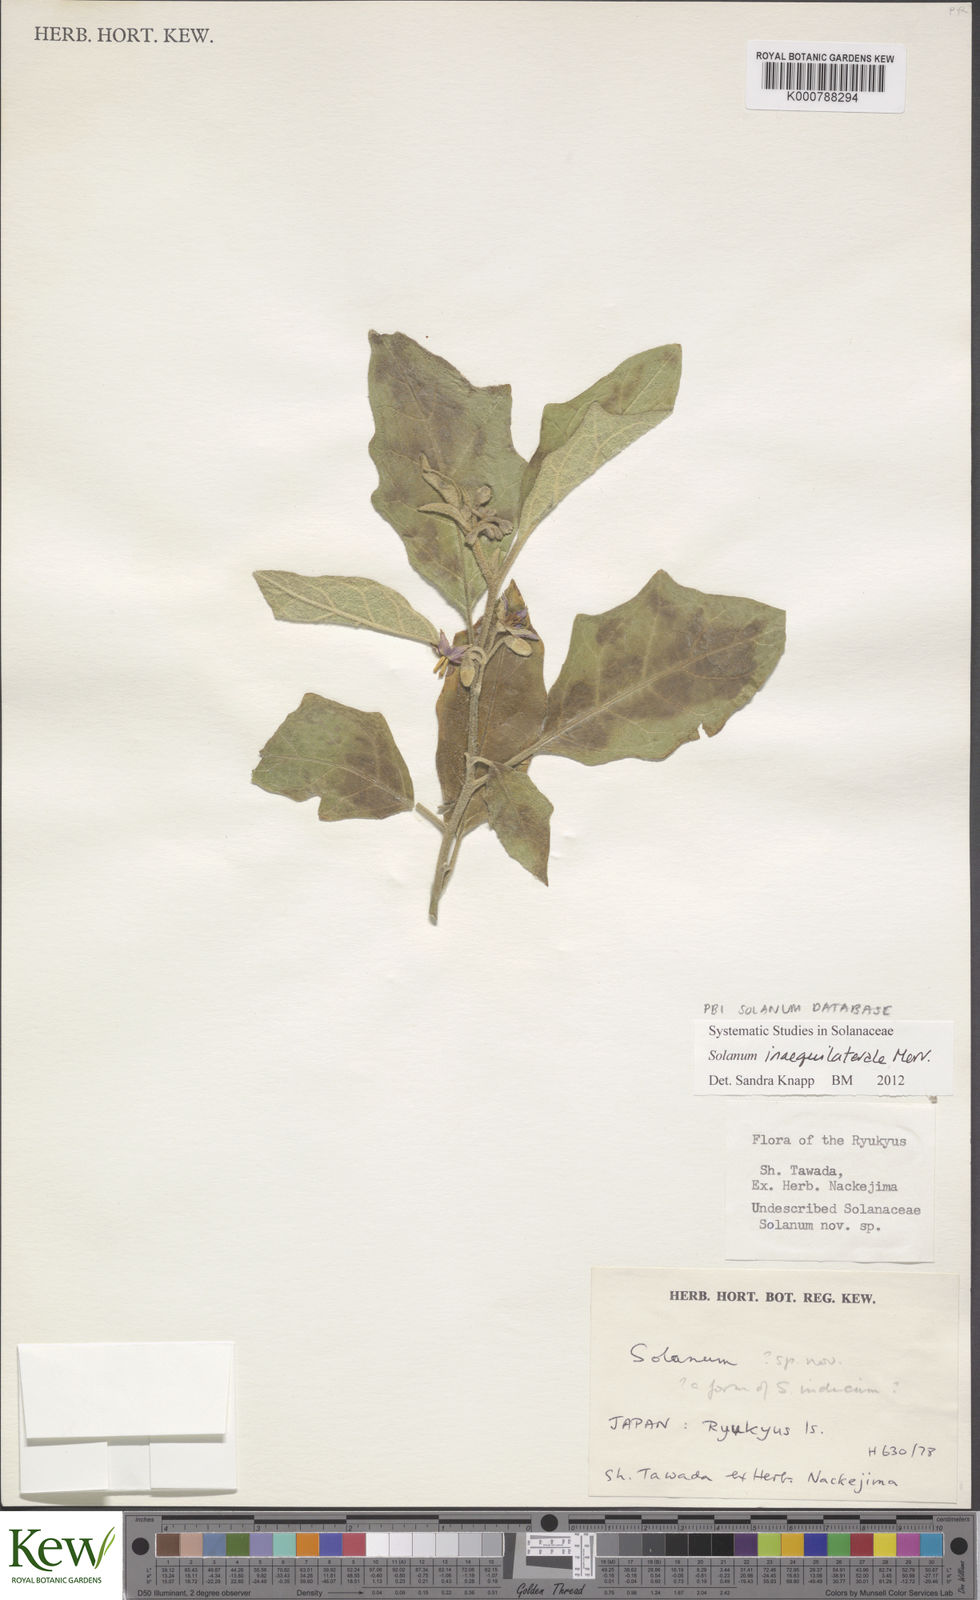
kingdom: Plantae
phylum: Tracheophyta
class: Magnoliopsida
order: Solanales
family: Solanaceae
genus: Solanum
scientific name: Solanum pseudosaponaceum
